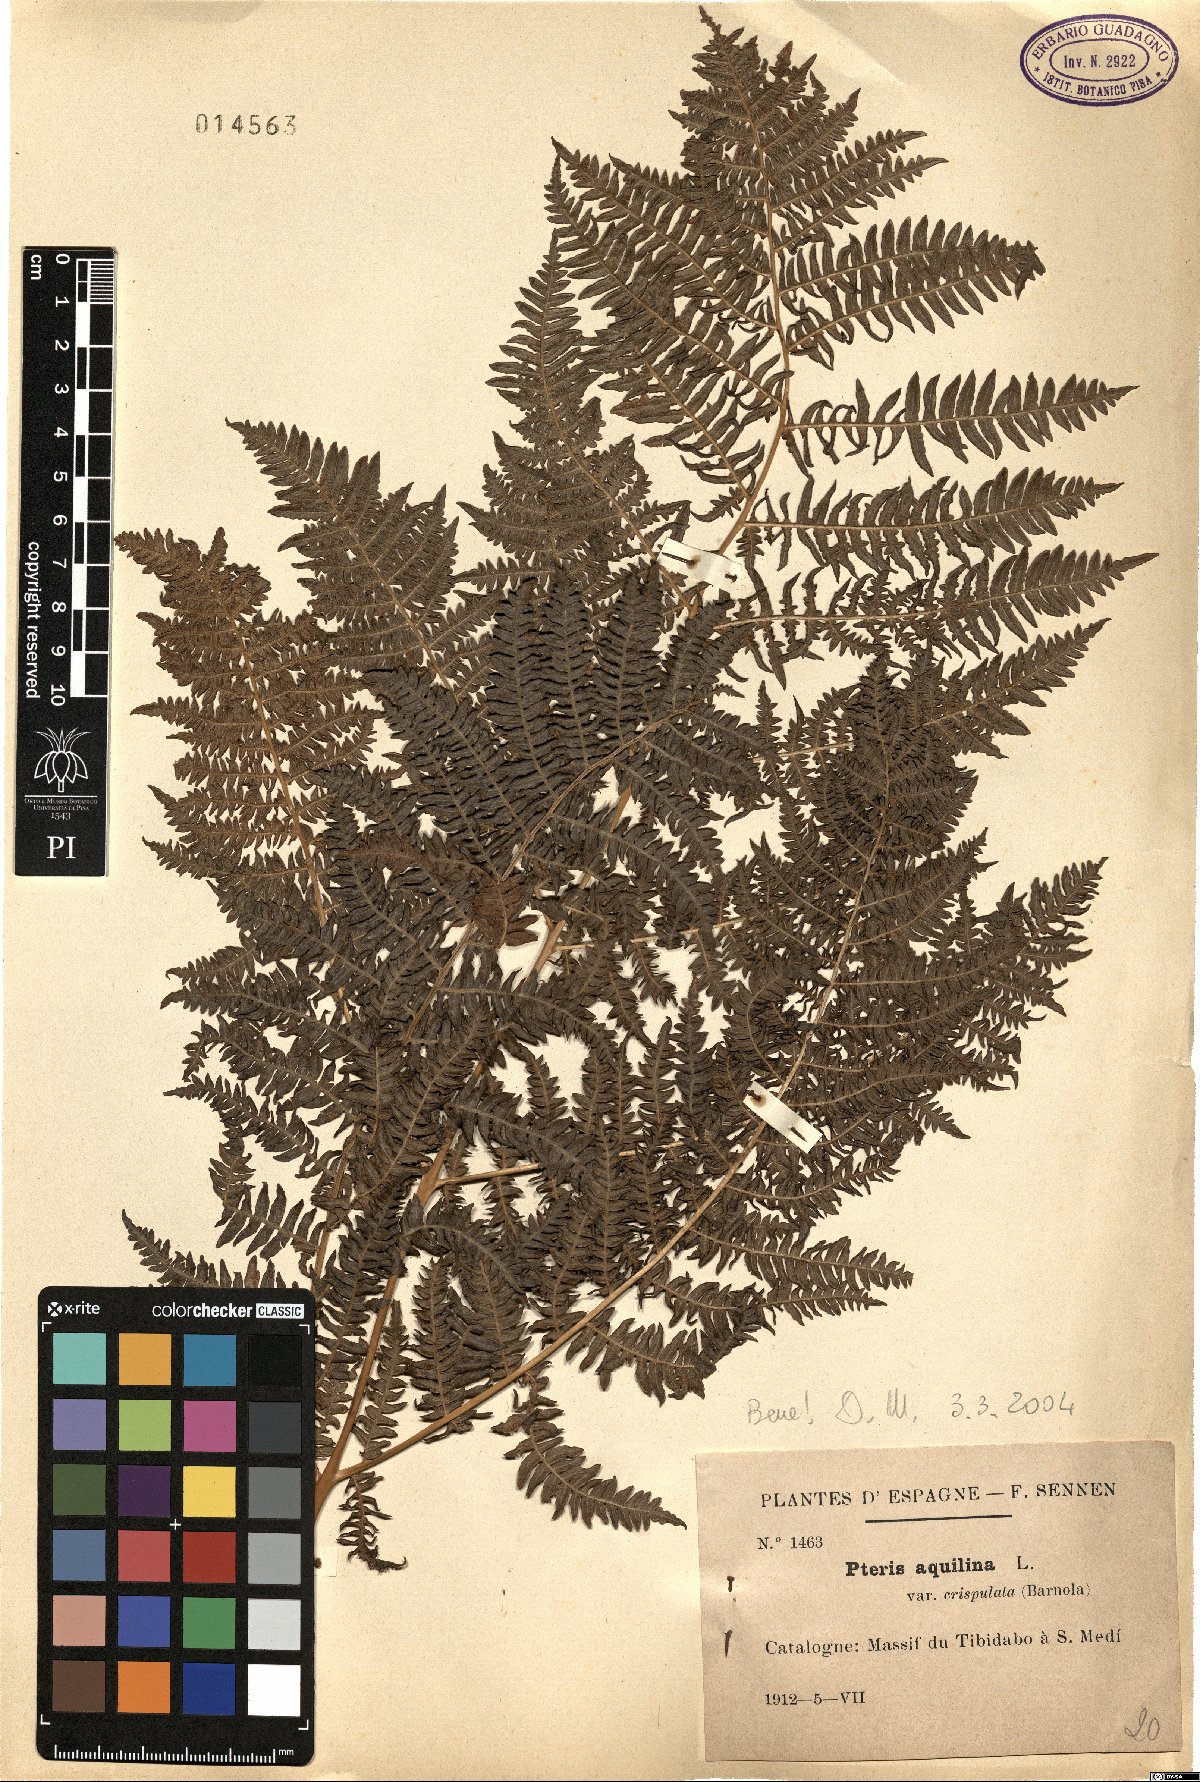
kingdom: Plantae
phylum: Tracheophyta
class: Polypodiopsida
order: Polypodiales
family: Dennstaedtiaceae
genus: Pteridium
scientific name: Pteridium aquilinum
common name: Bracken
